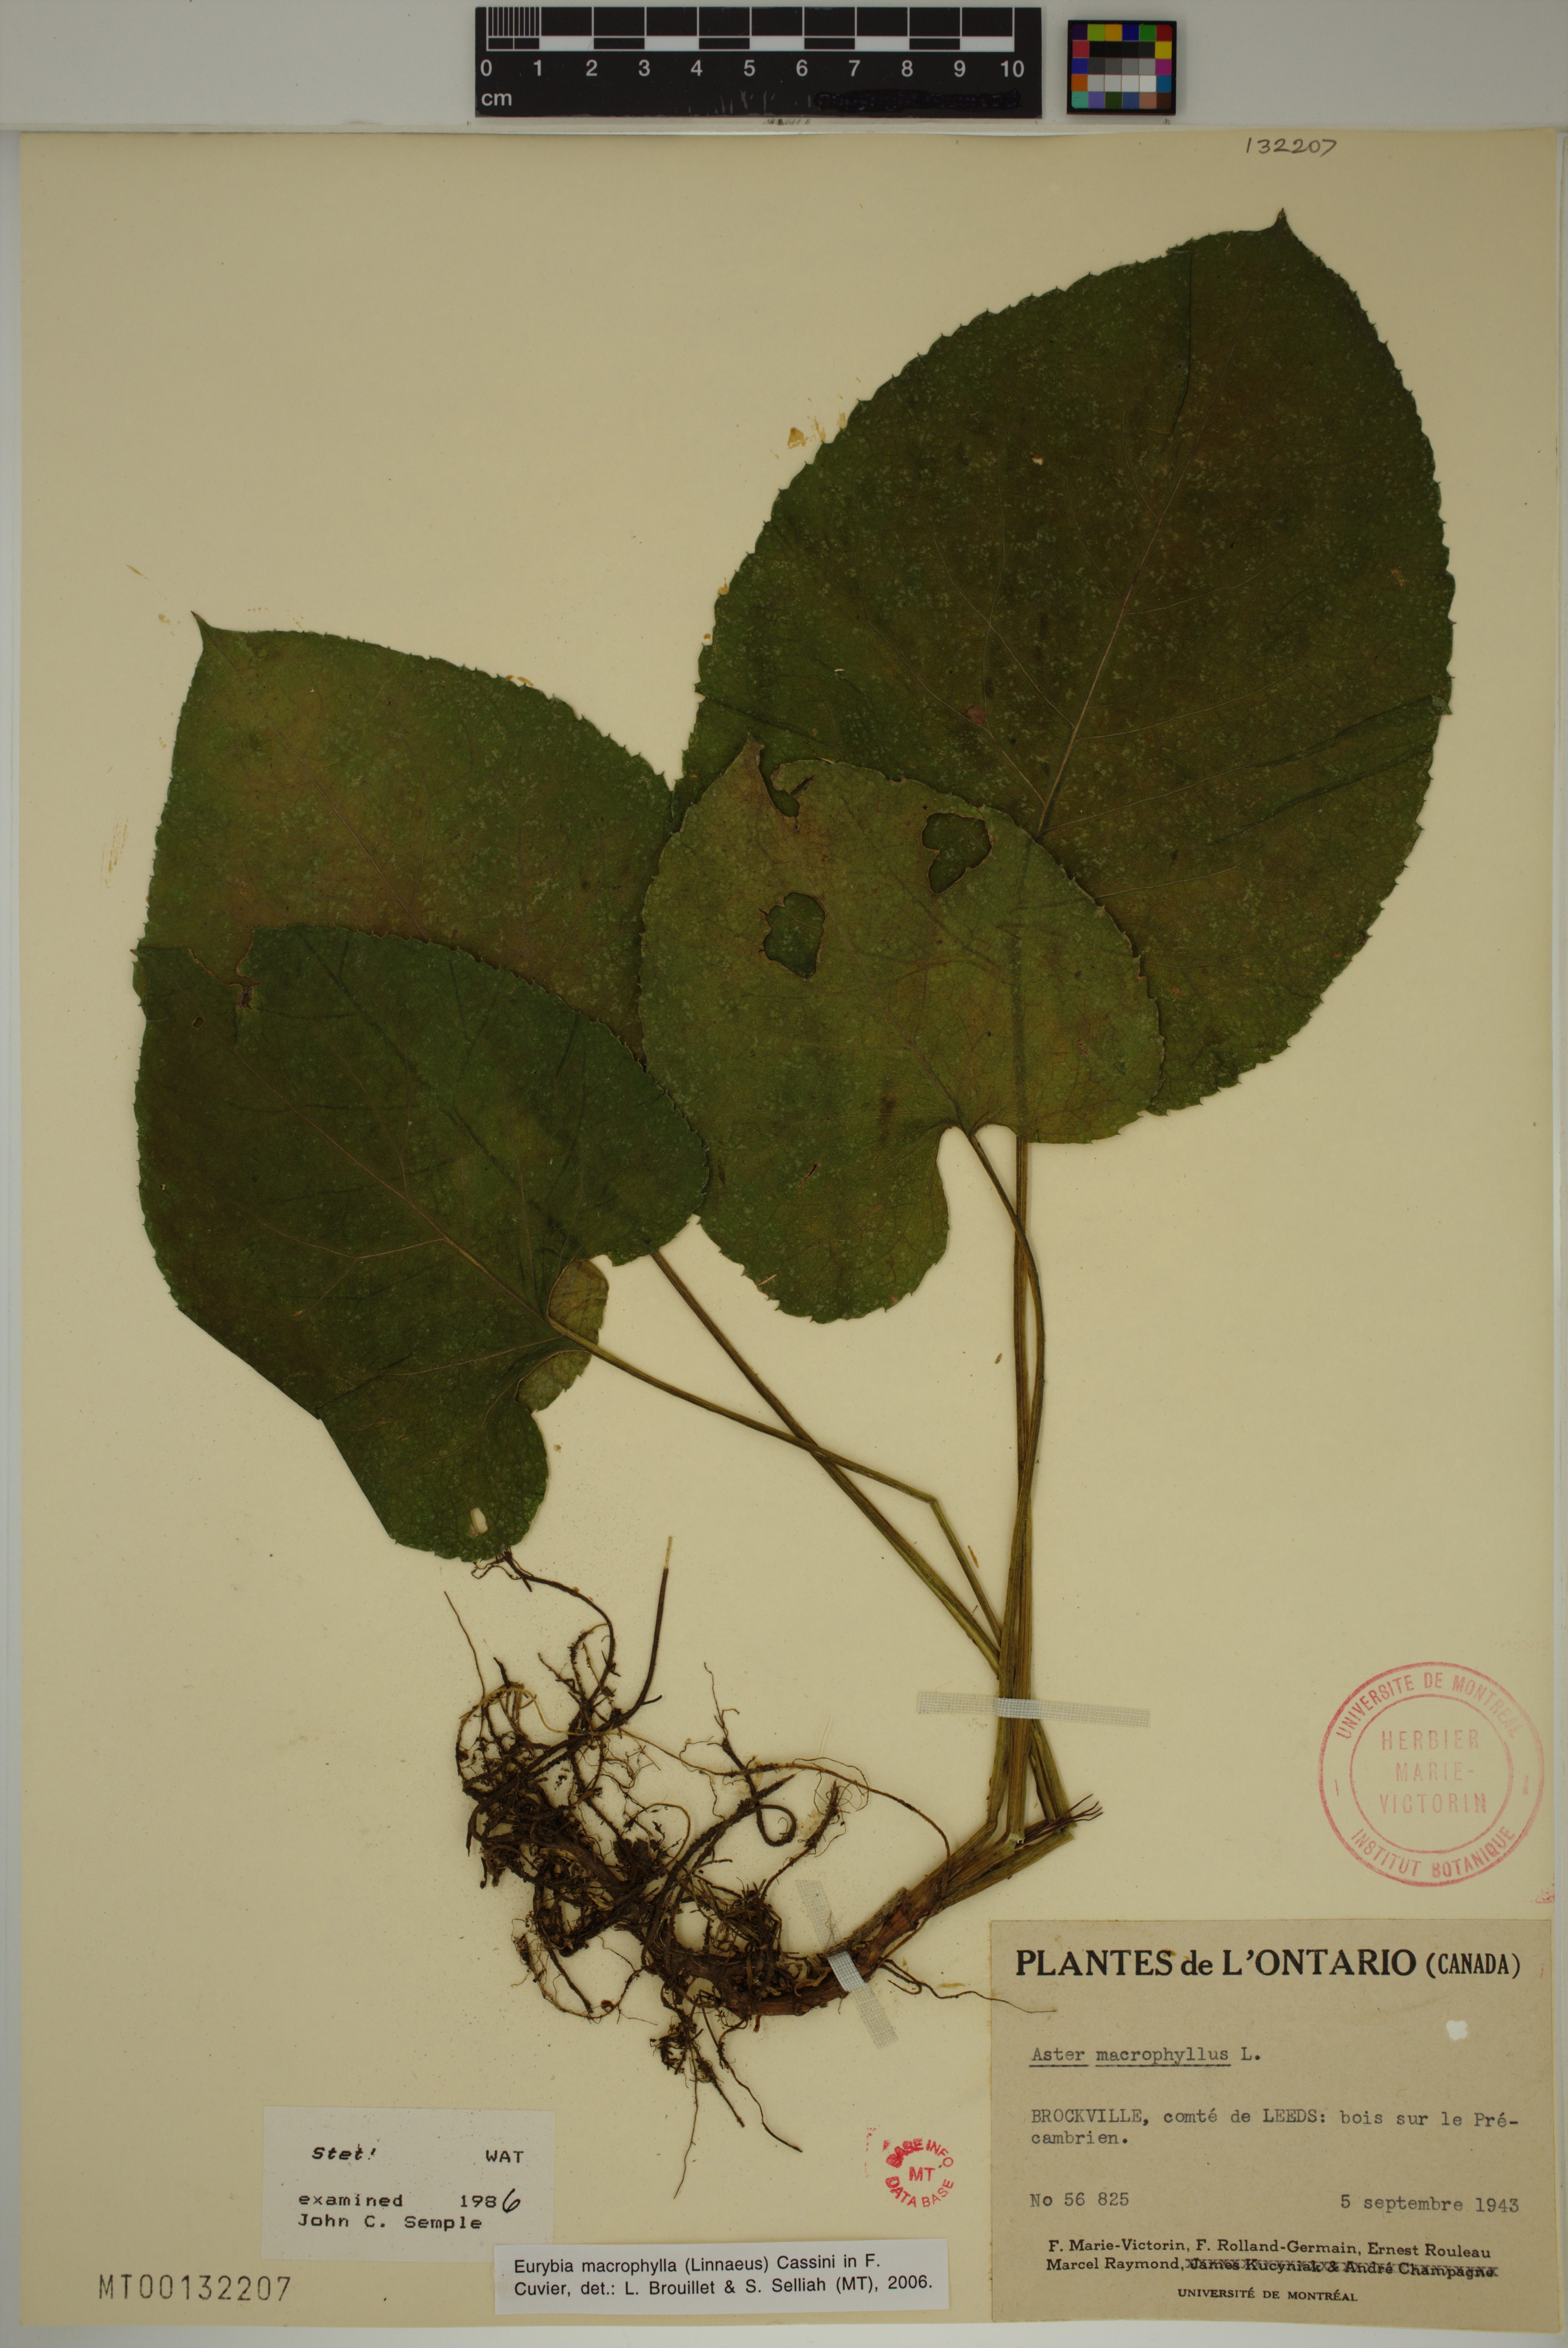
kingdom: Plantae
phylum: Tracheophyta
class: Magnoliopsida
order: Asterales
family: Asteraceae
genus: Eurybia
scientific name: Eurybia macrophylla
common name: Big-leaved aster
